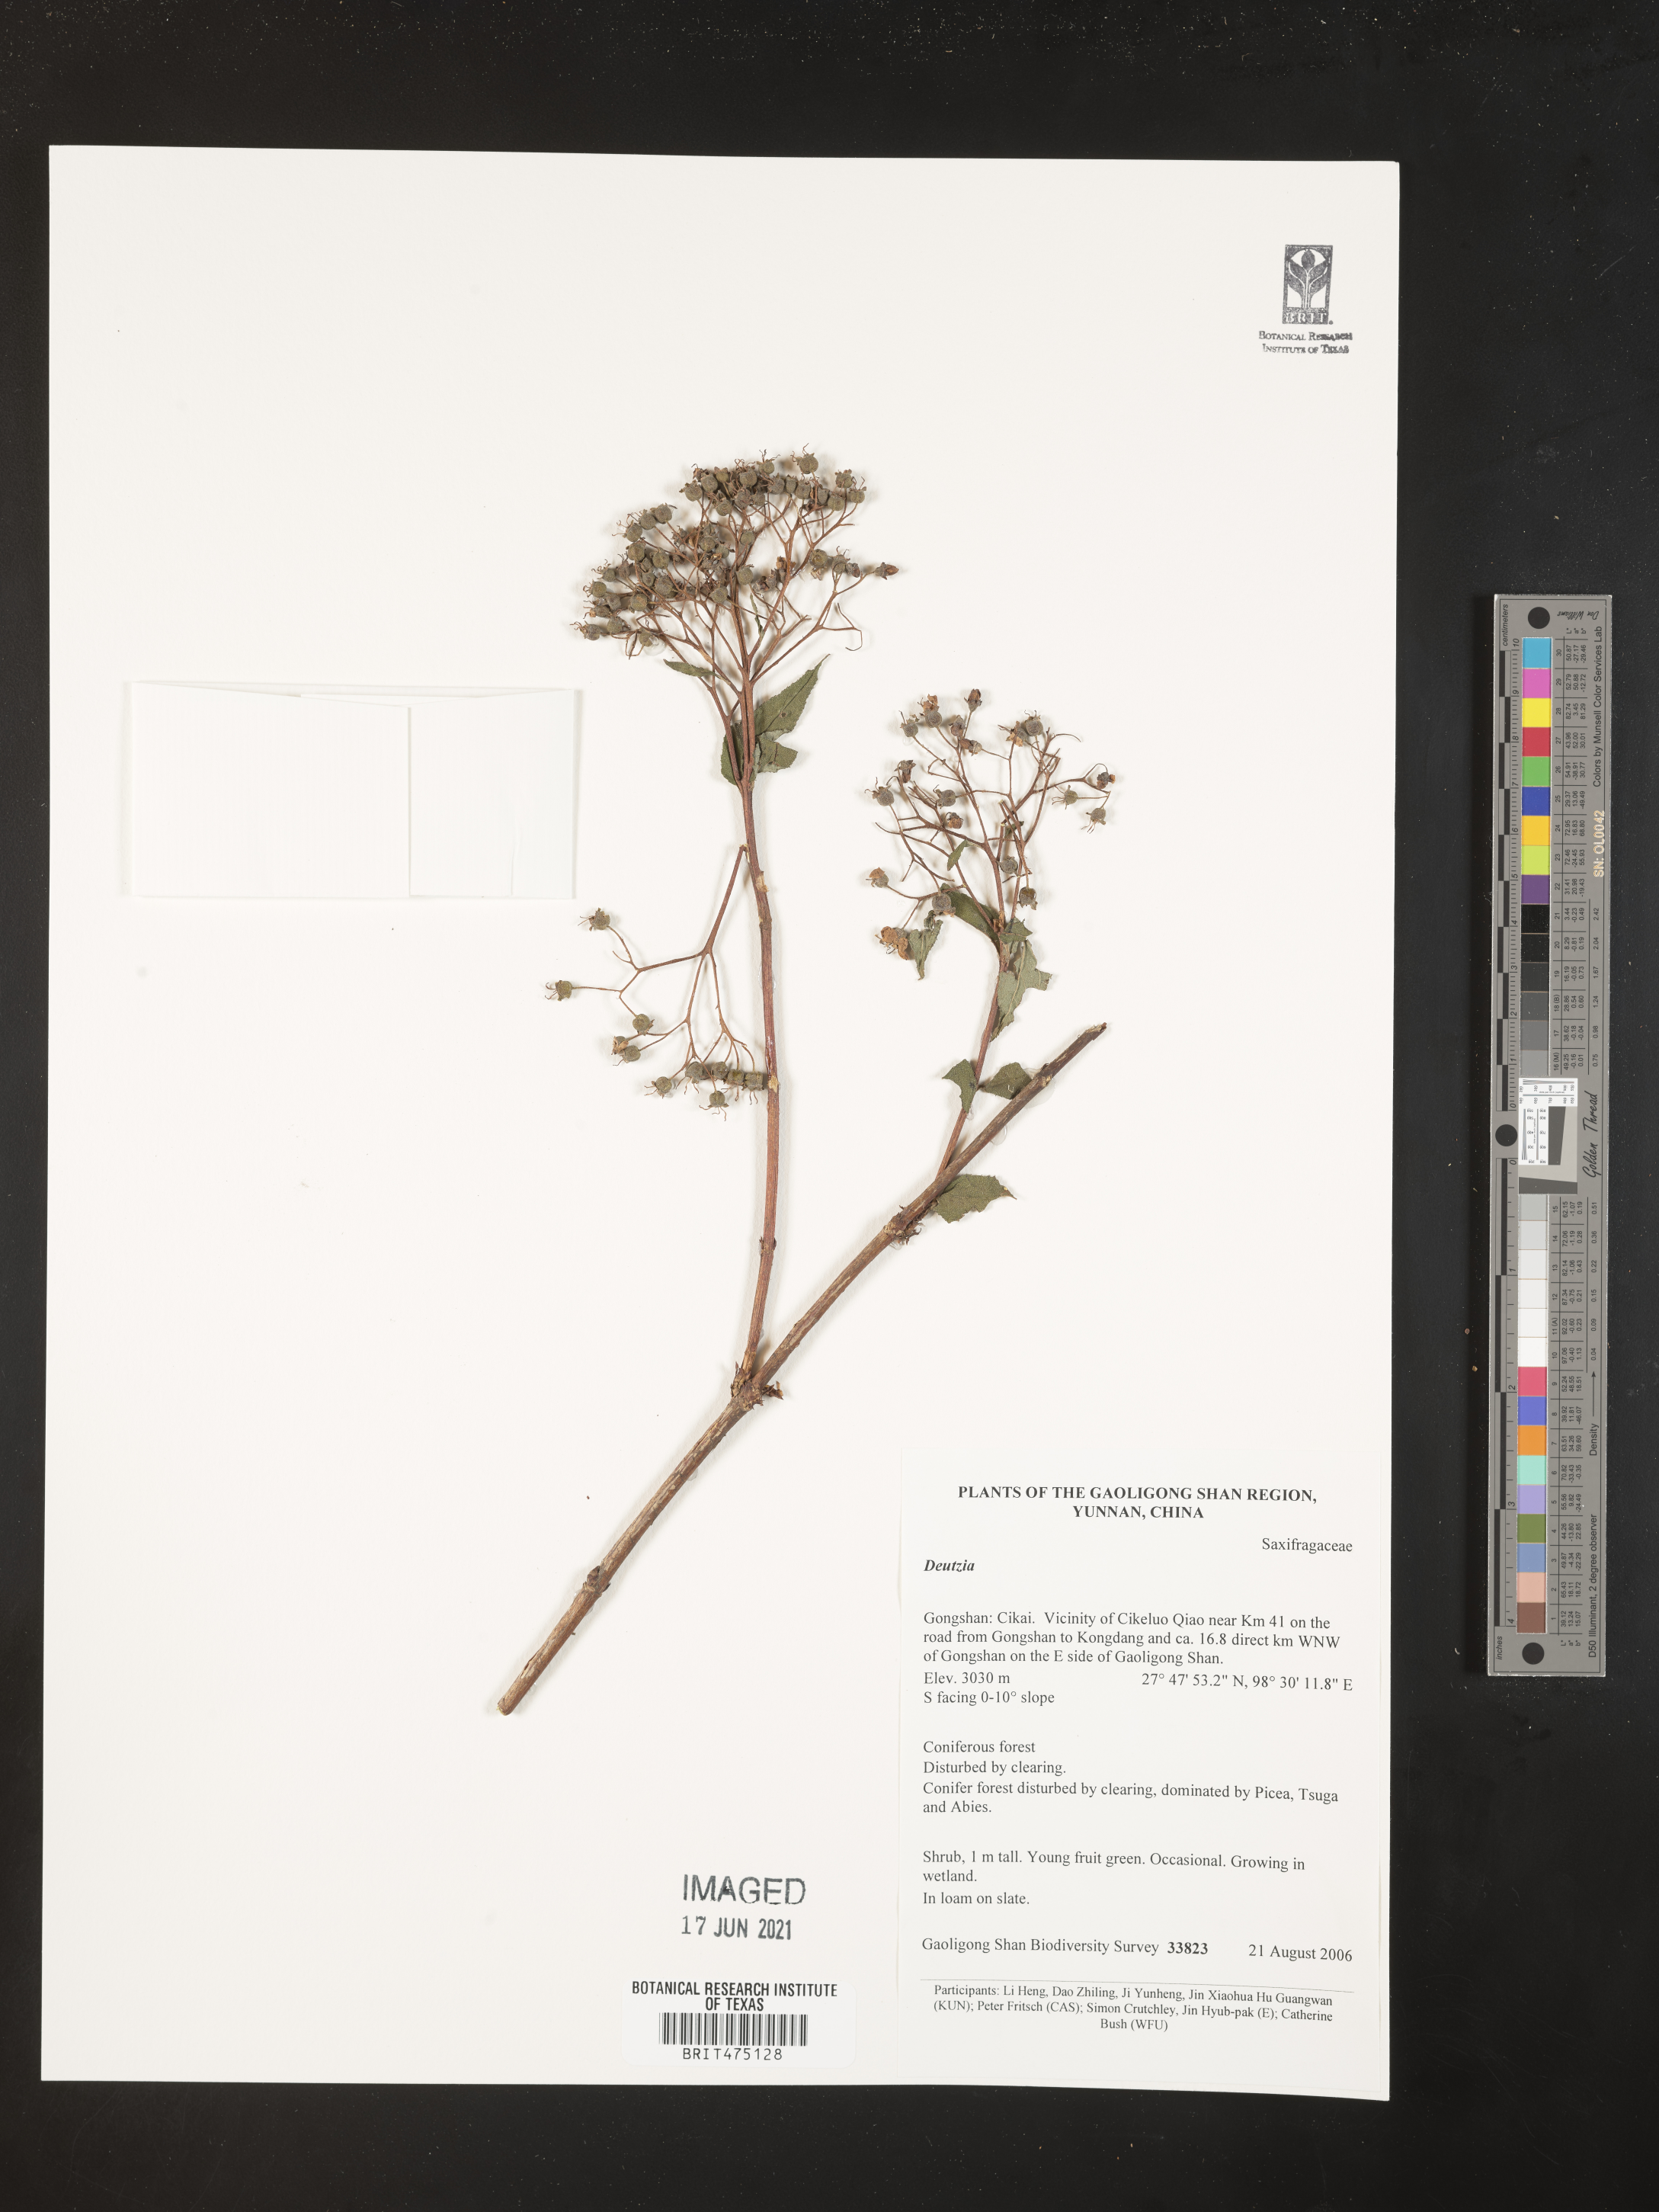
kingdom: Plantae
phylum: Tracheophyta
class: Magnoliopsida
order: Cornales
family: Hydrangeaceae
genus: Deutzia
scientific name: Deutzia
